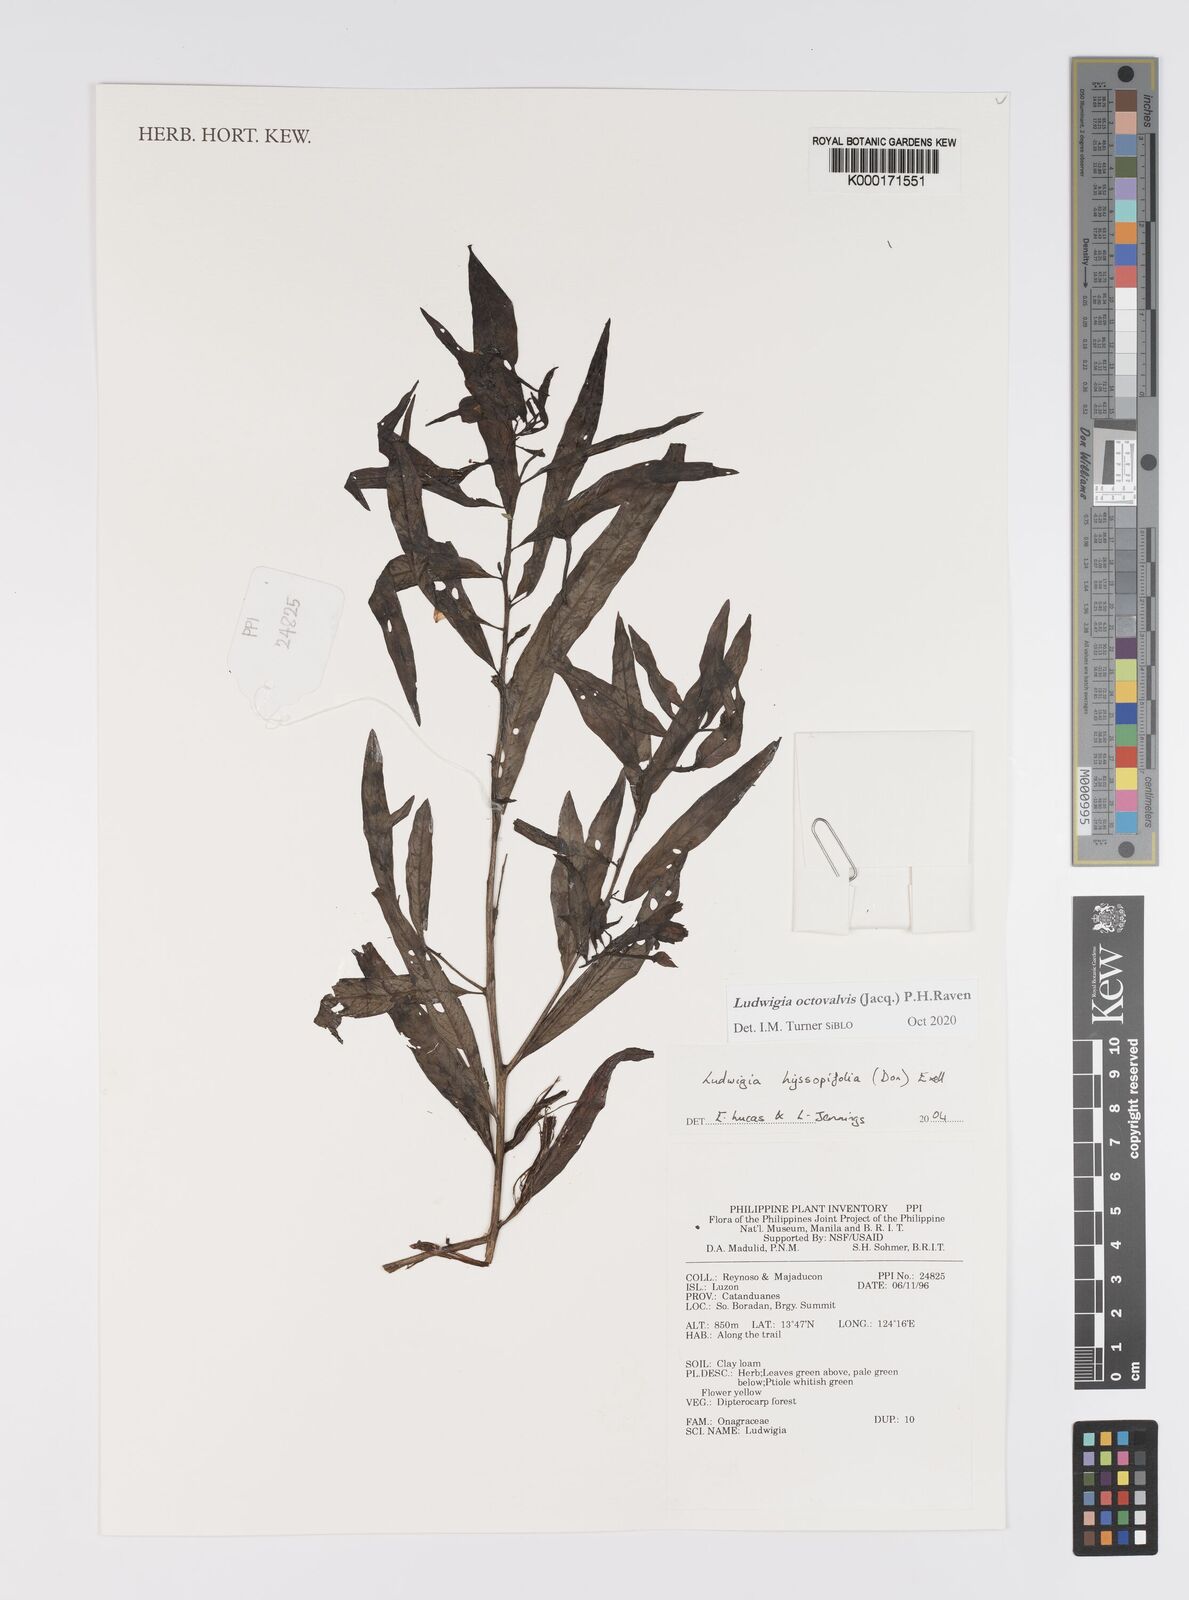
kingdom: Plantae
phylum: Tracheophyta
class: Magnoliopsida
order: Myrtales
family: Onagraceae
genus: Ludwigia
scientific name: Ludwigia hyssopifolia
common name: Linear leaf water primrose
